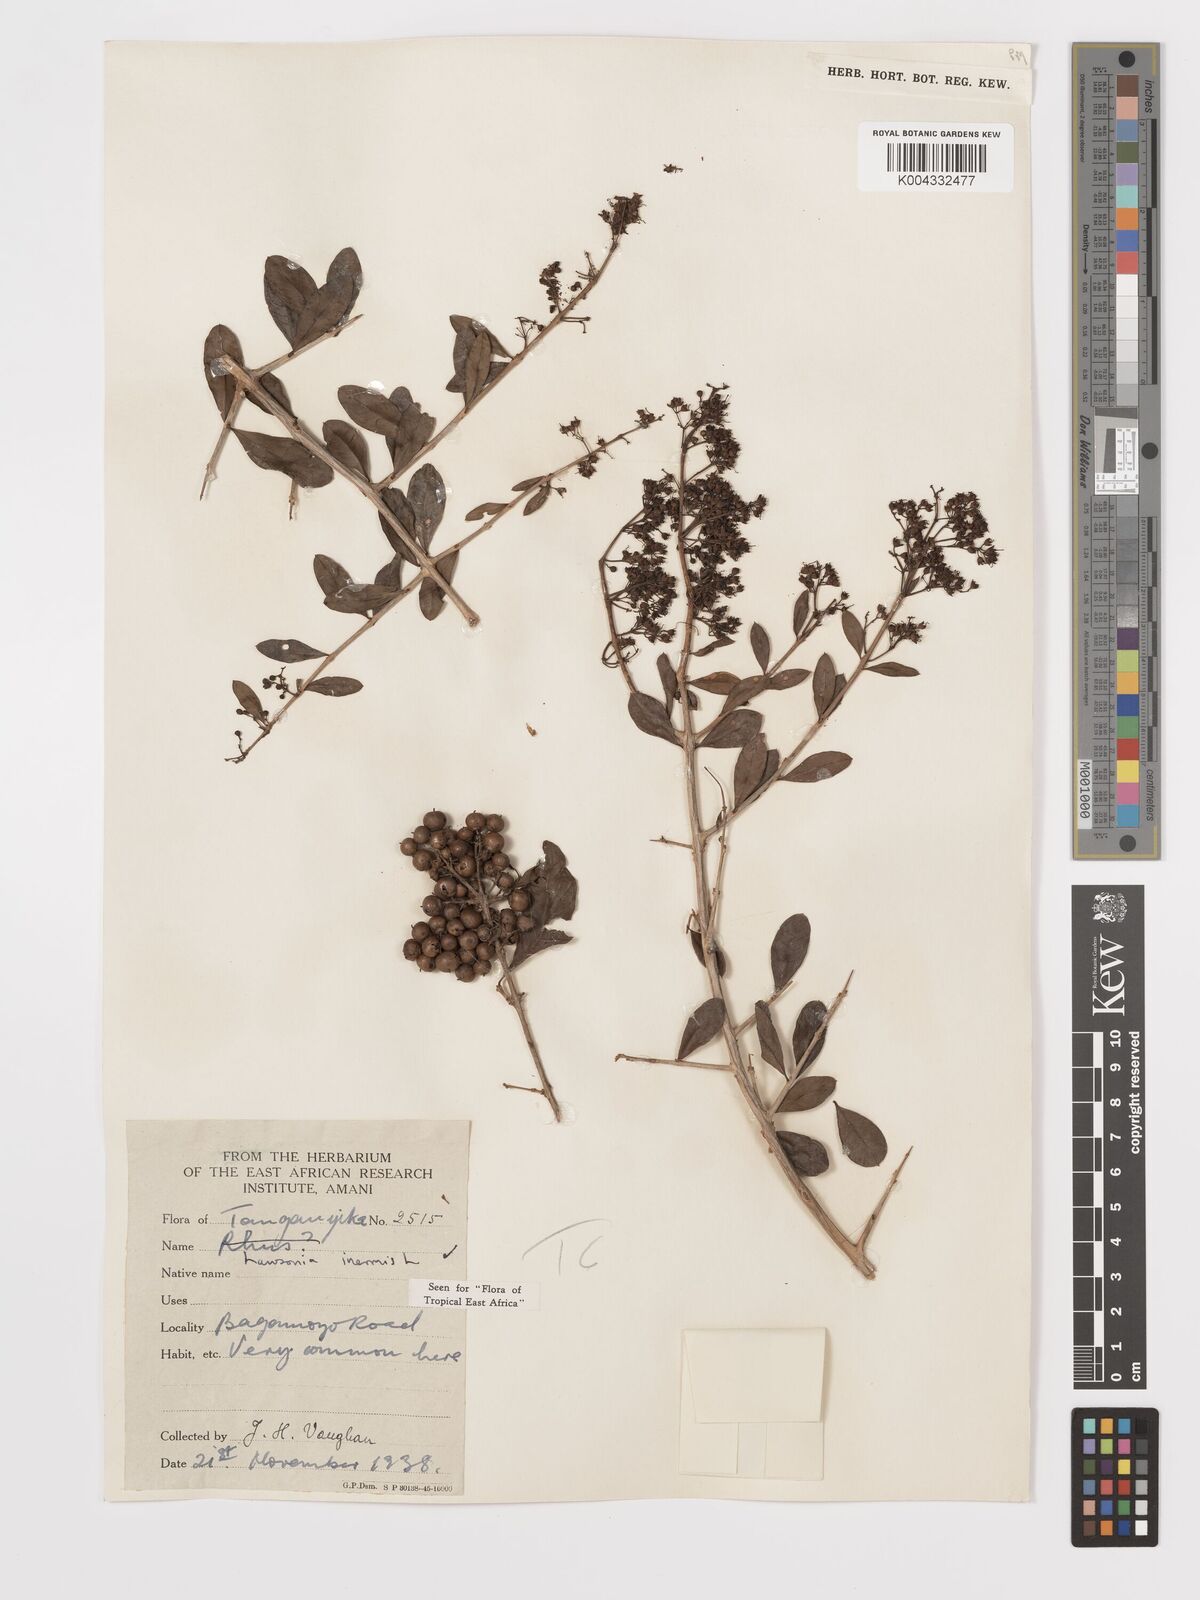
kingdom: Plantae
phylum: Tracheophyta
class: Magnoliopsida
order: Myrtales
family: Lythraceae
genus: Lawsonia
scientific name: Lawsonia inermis
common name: Henna
